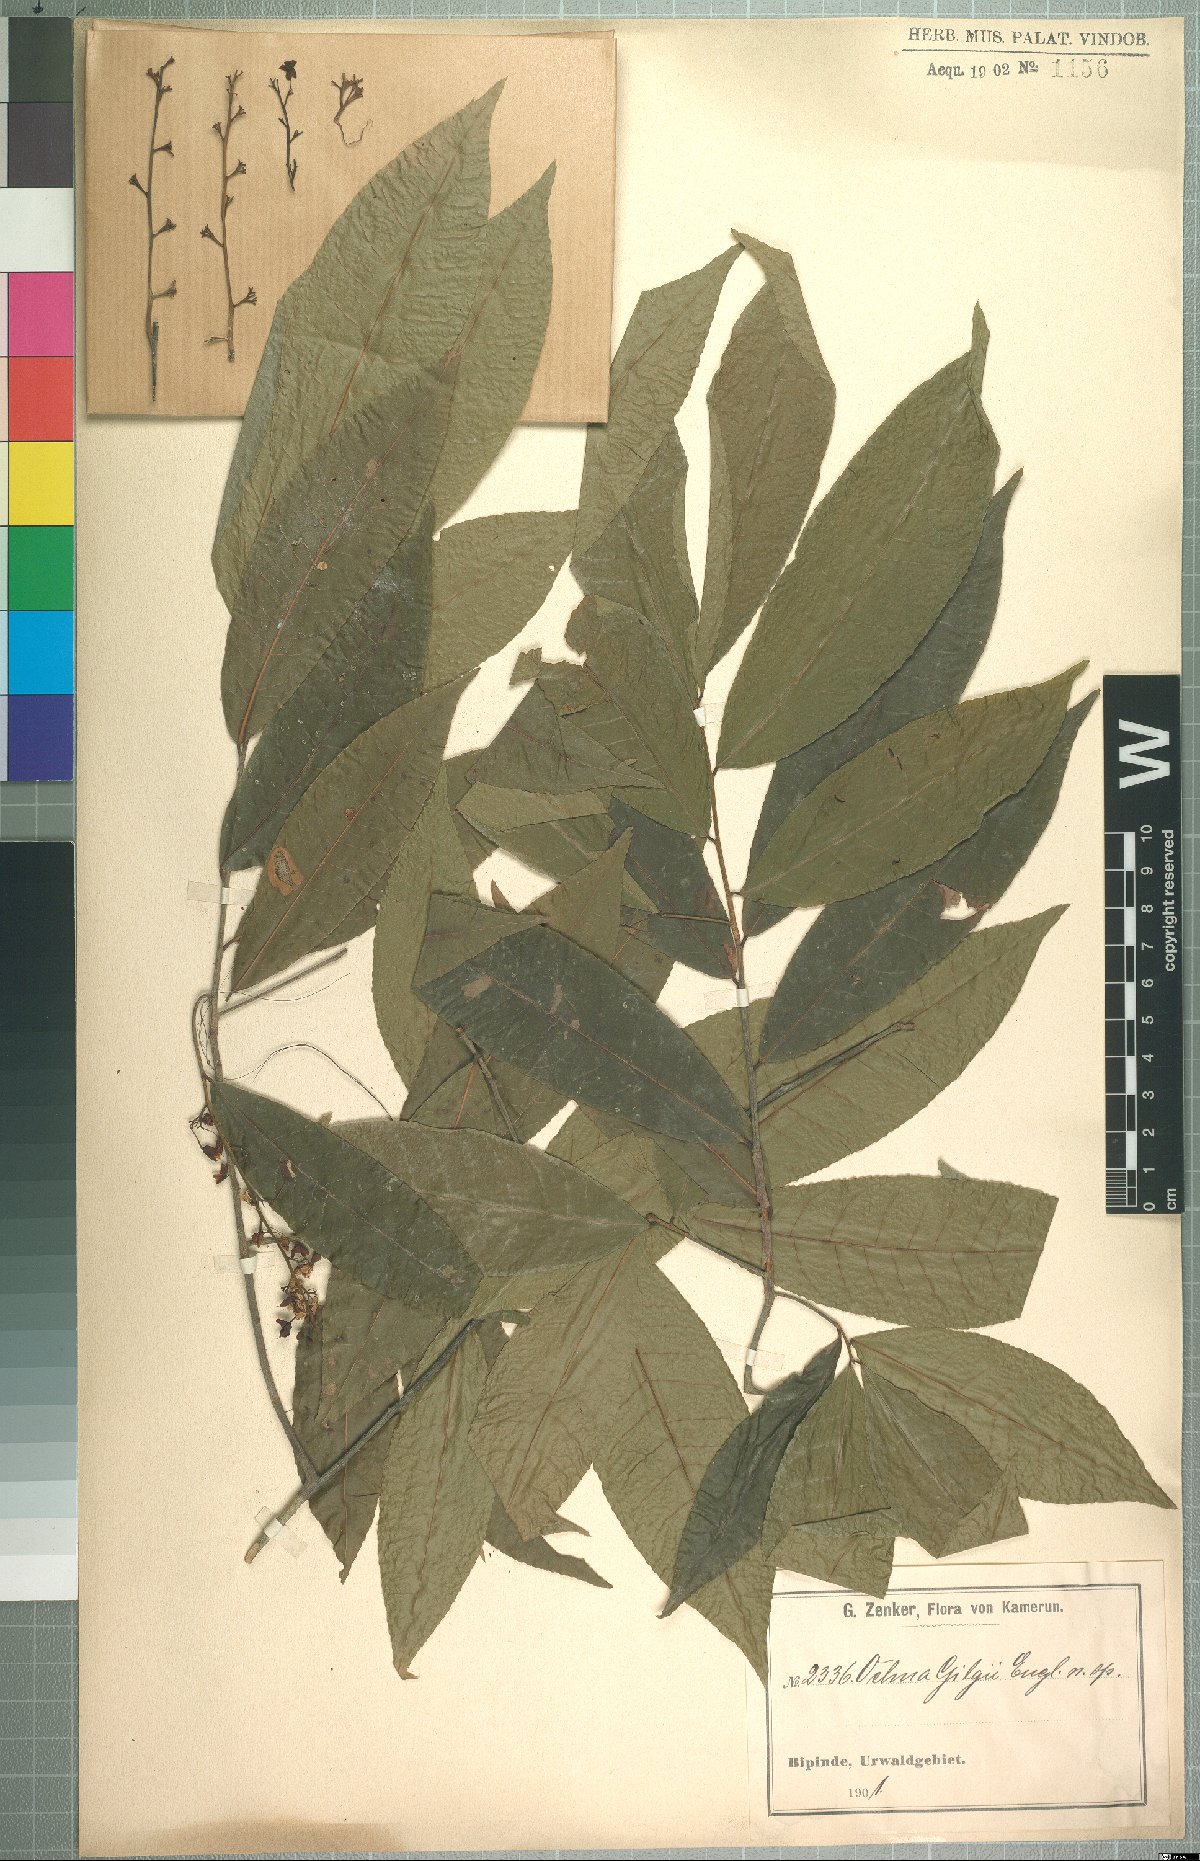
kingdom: Plantae
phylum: Tracheophyta
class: Magnoliopsida
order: Malpighiales
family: Ochnaceae
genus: Ochna
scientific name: Ochna membranacea
